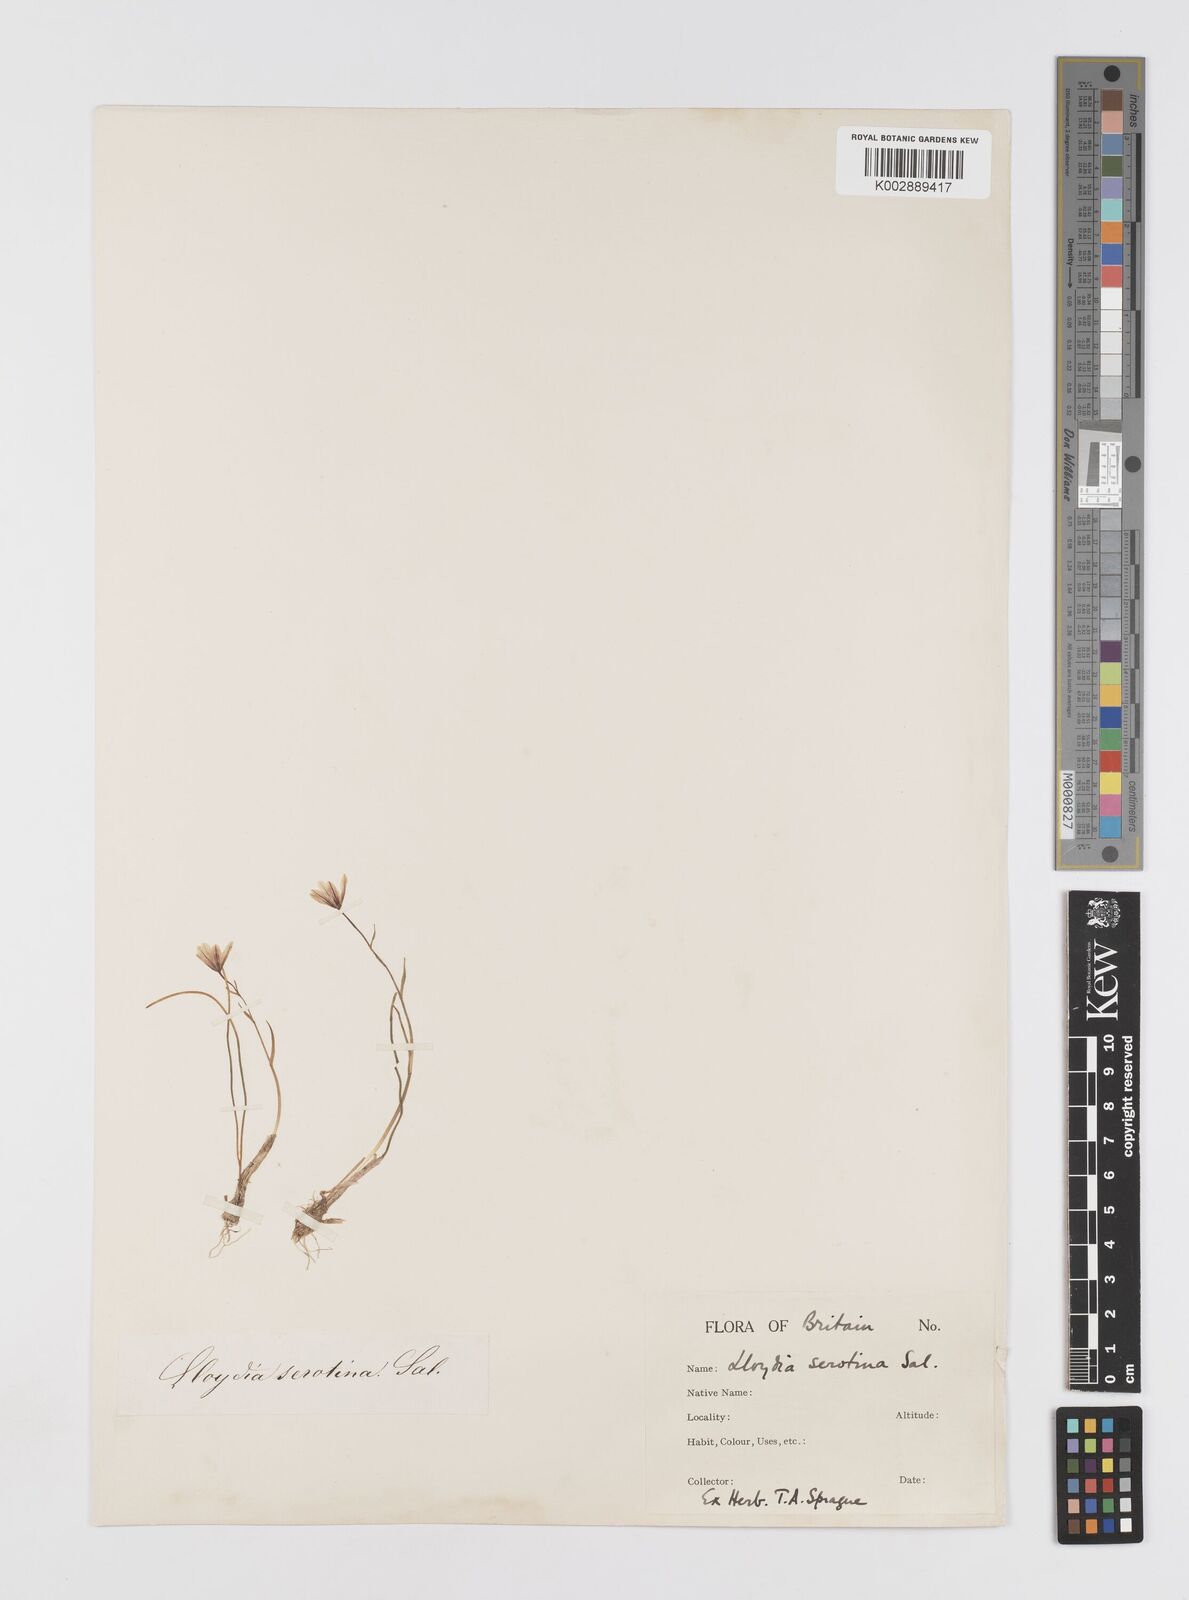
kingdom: Plantae
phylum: Tracheophyta
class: Liliopsida
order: Liliales
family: Liliaceae
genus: Gagea
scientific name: Gagea
